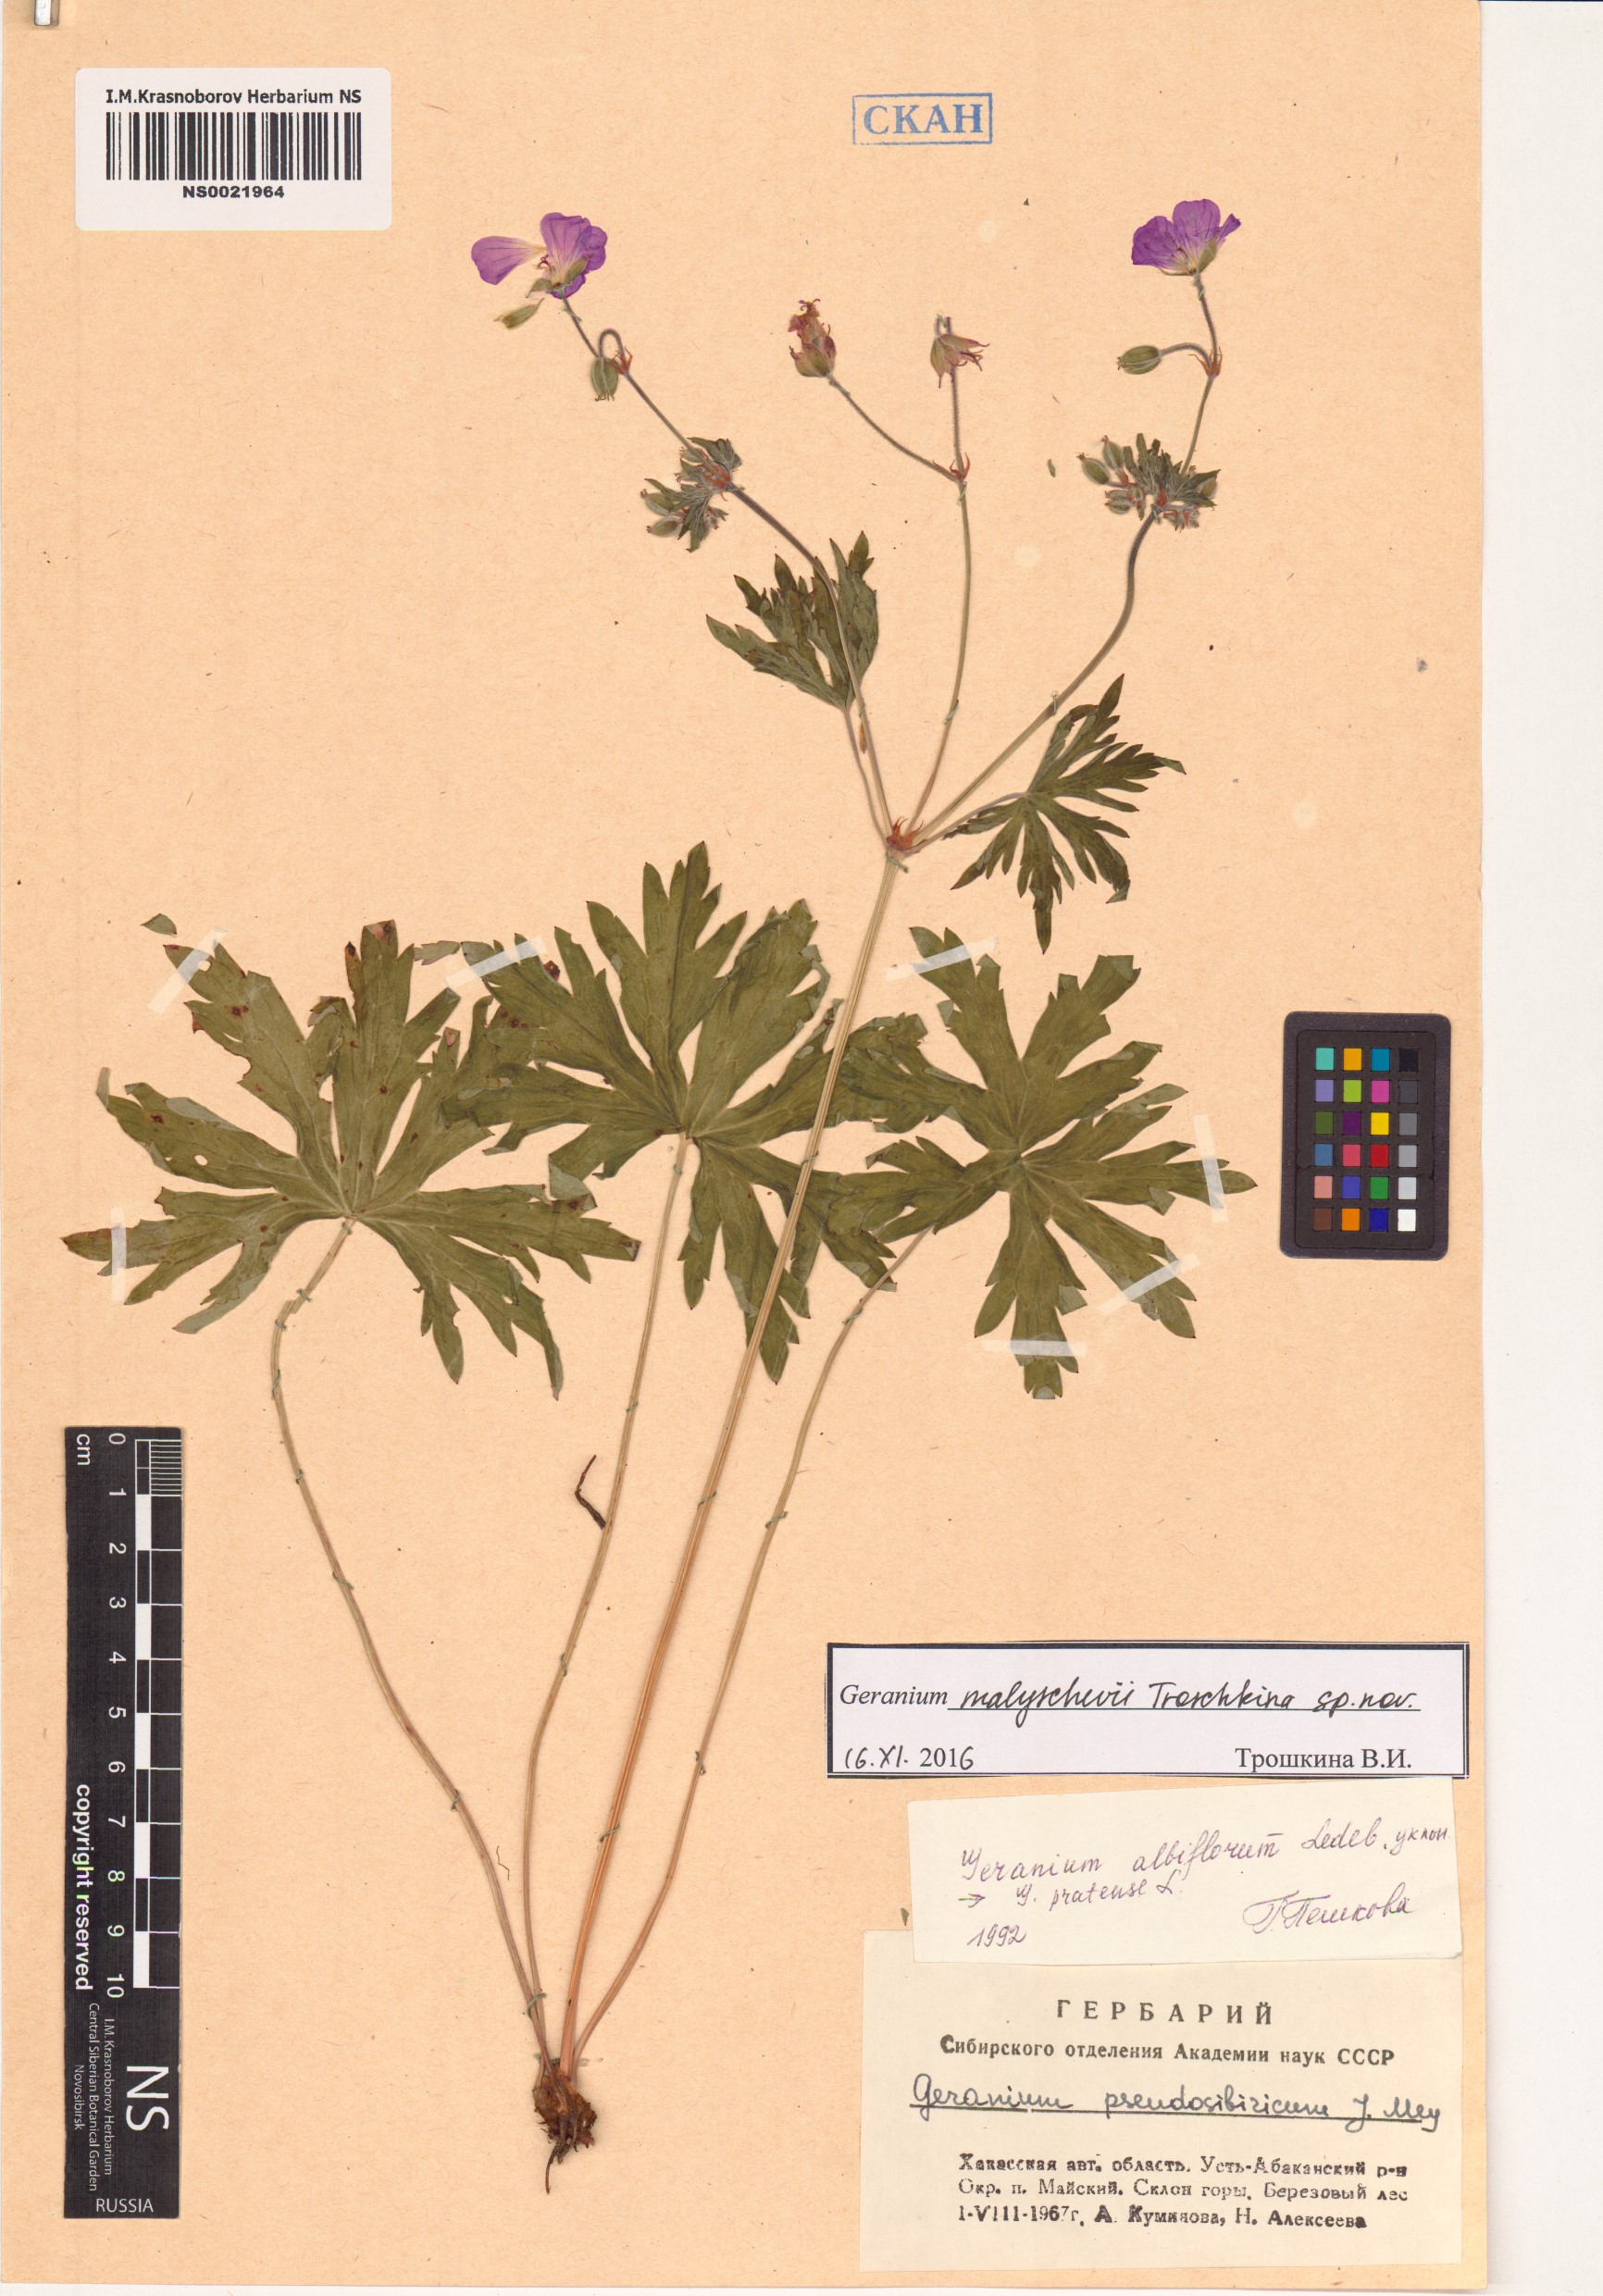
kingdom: Plantae
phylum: Tracheophyta
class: Magnoliopsida
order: Geraniales
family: Geraniaceae
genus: Geranium
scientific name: Geranium malyschevii
